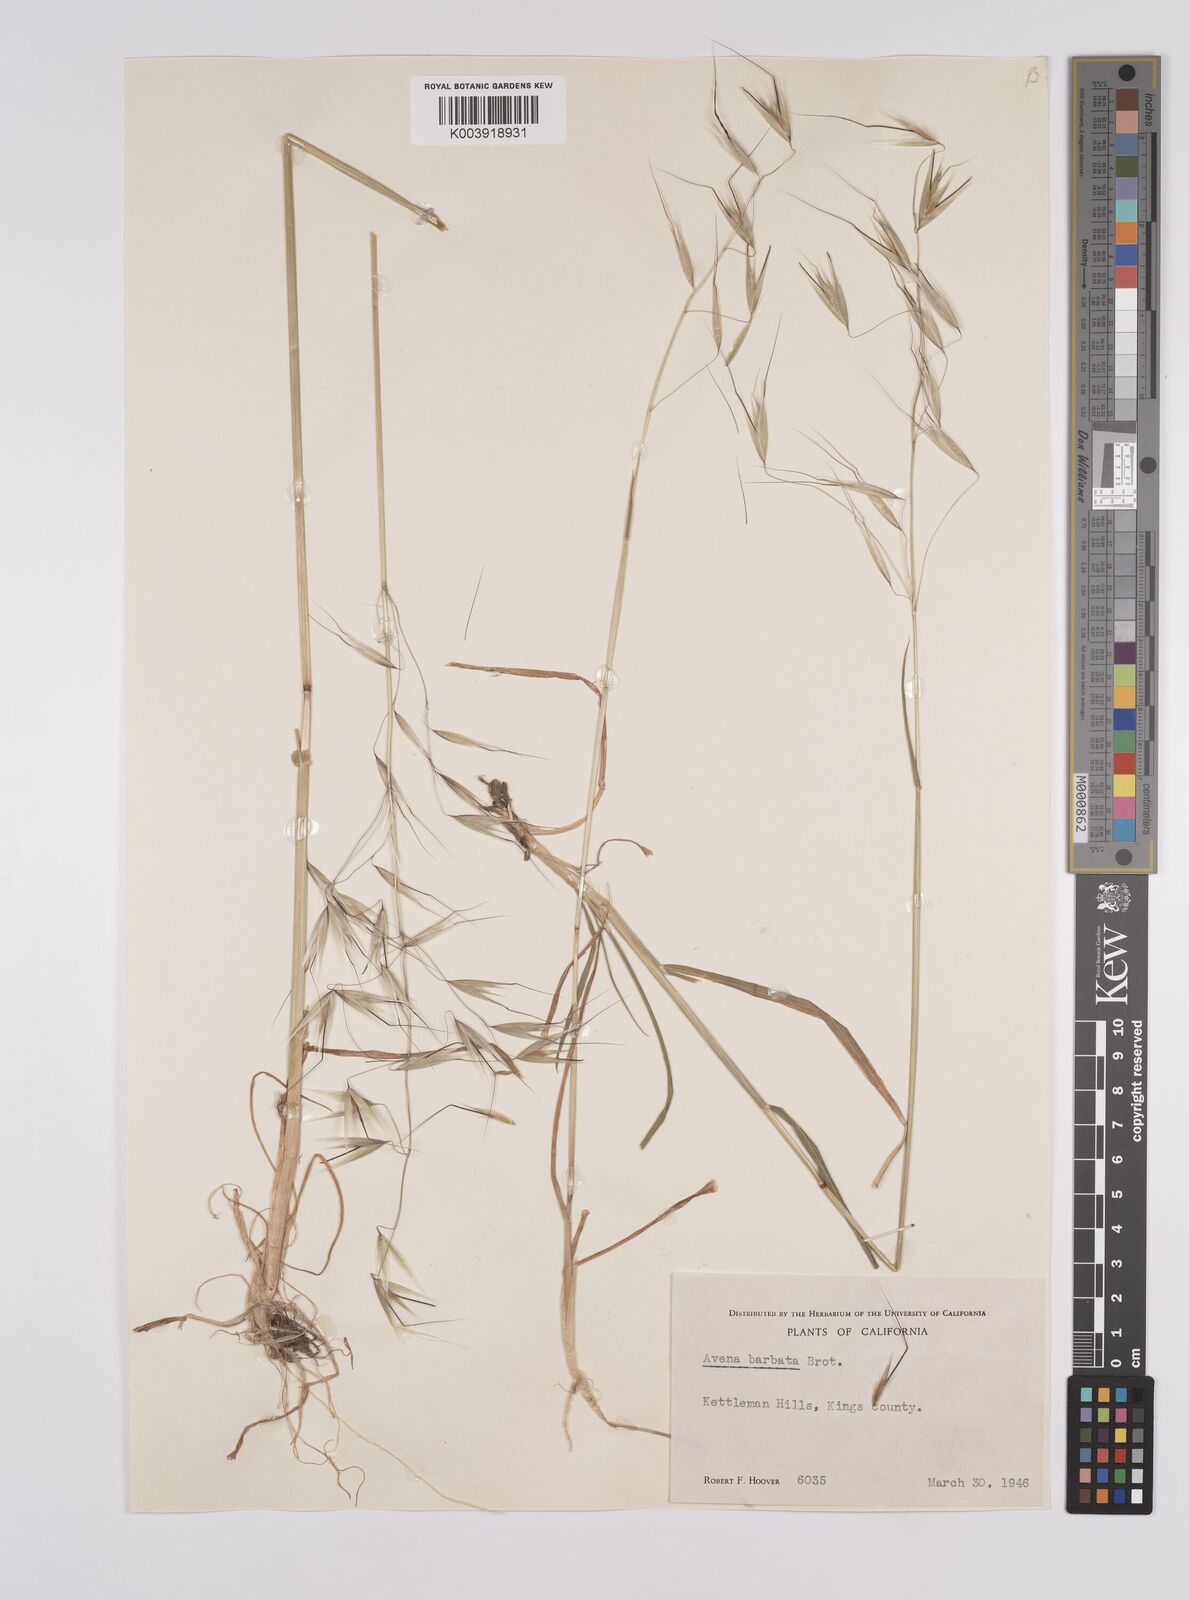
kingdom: Plantae
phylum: Tracheophyta
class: Liliopsida
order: Poales
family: Poaceae
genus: Avena
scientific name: Avena
